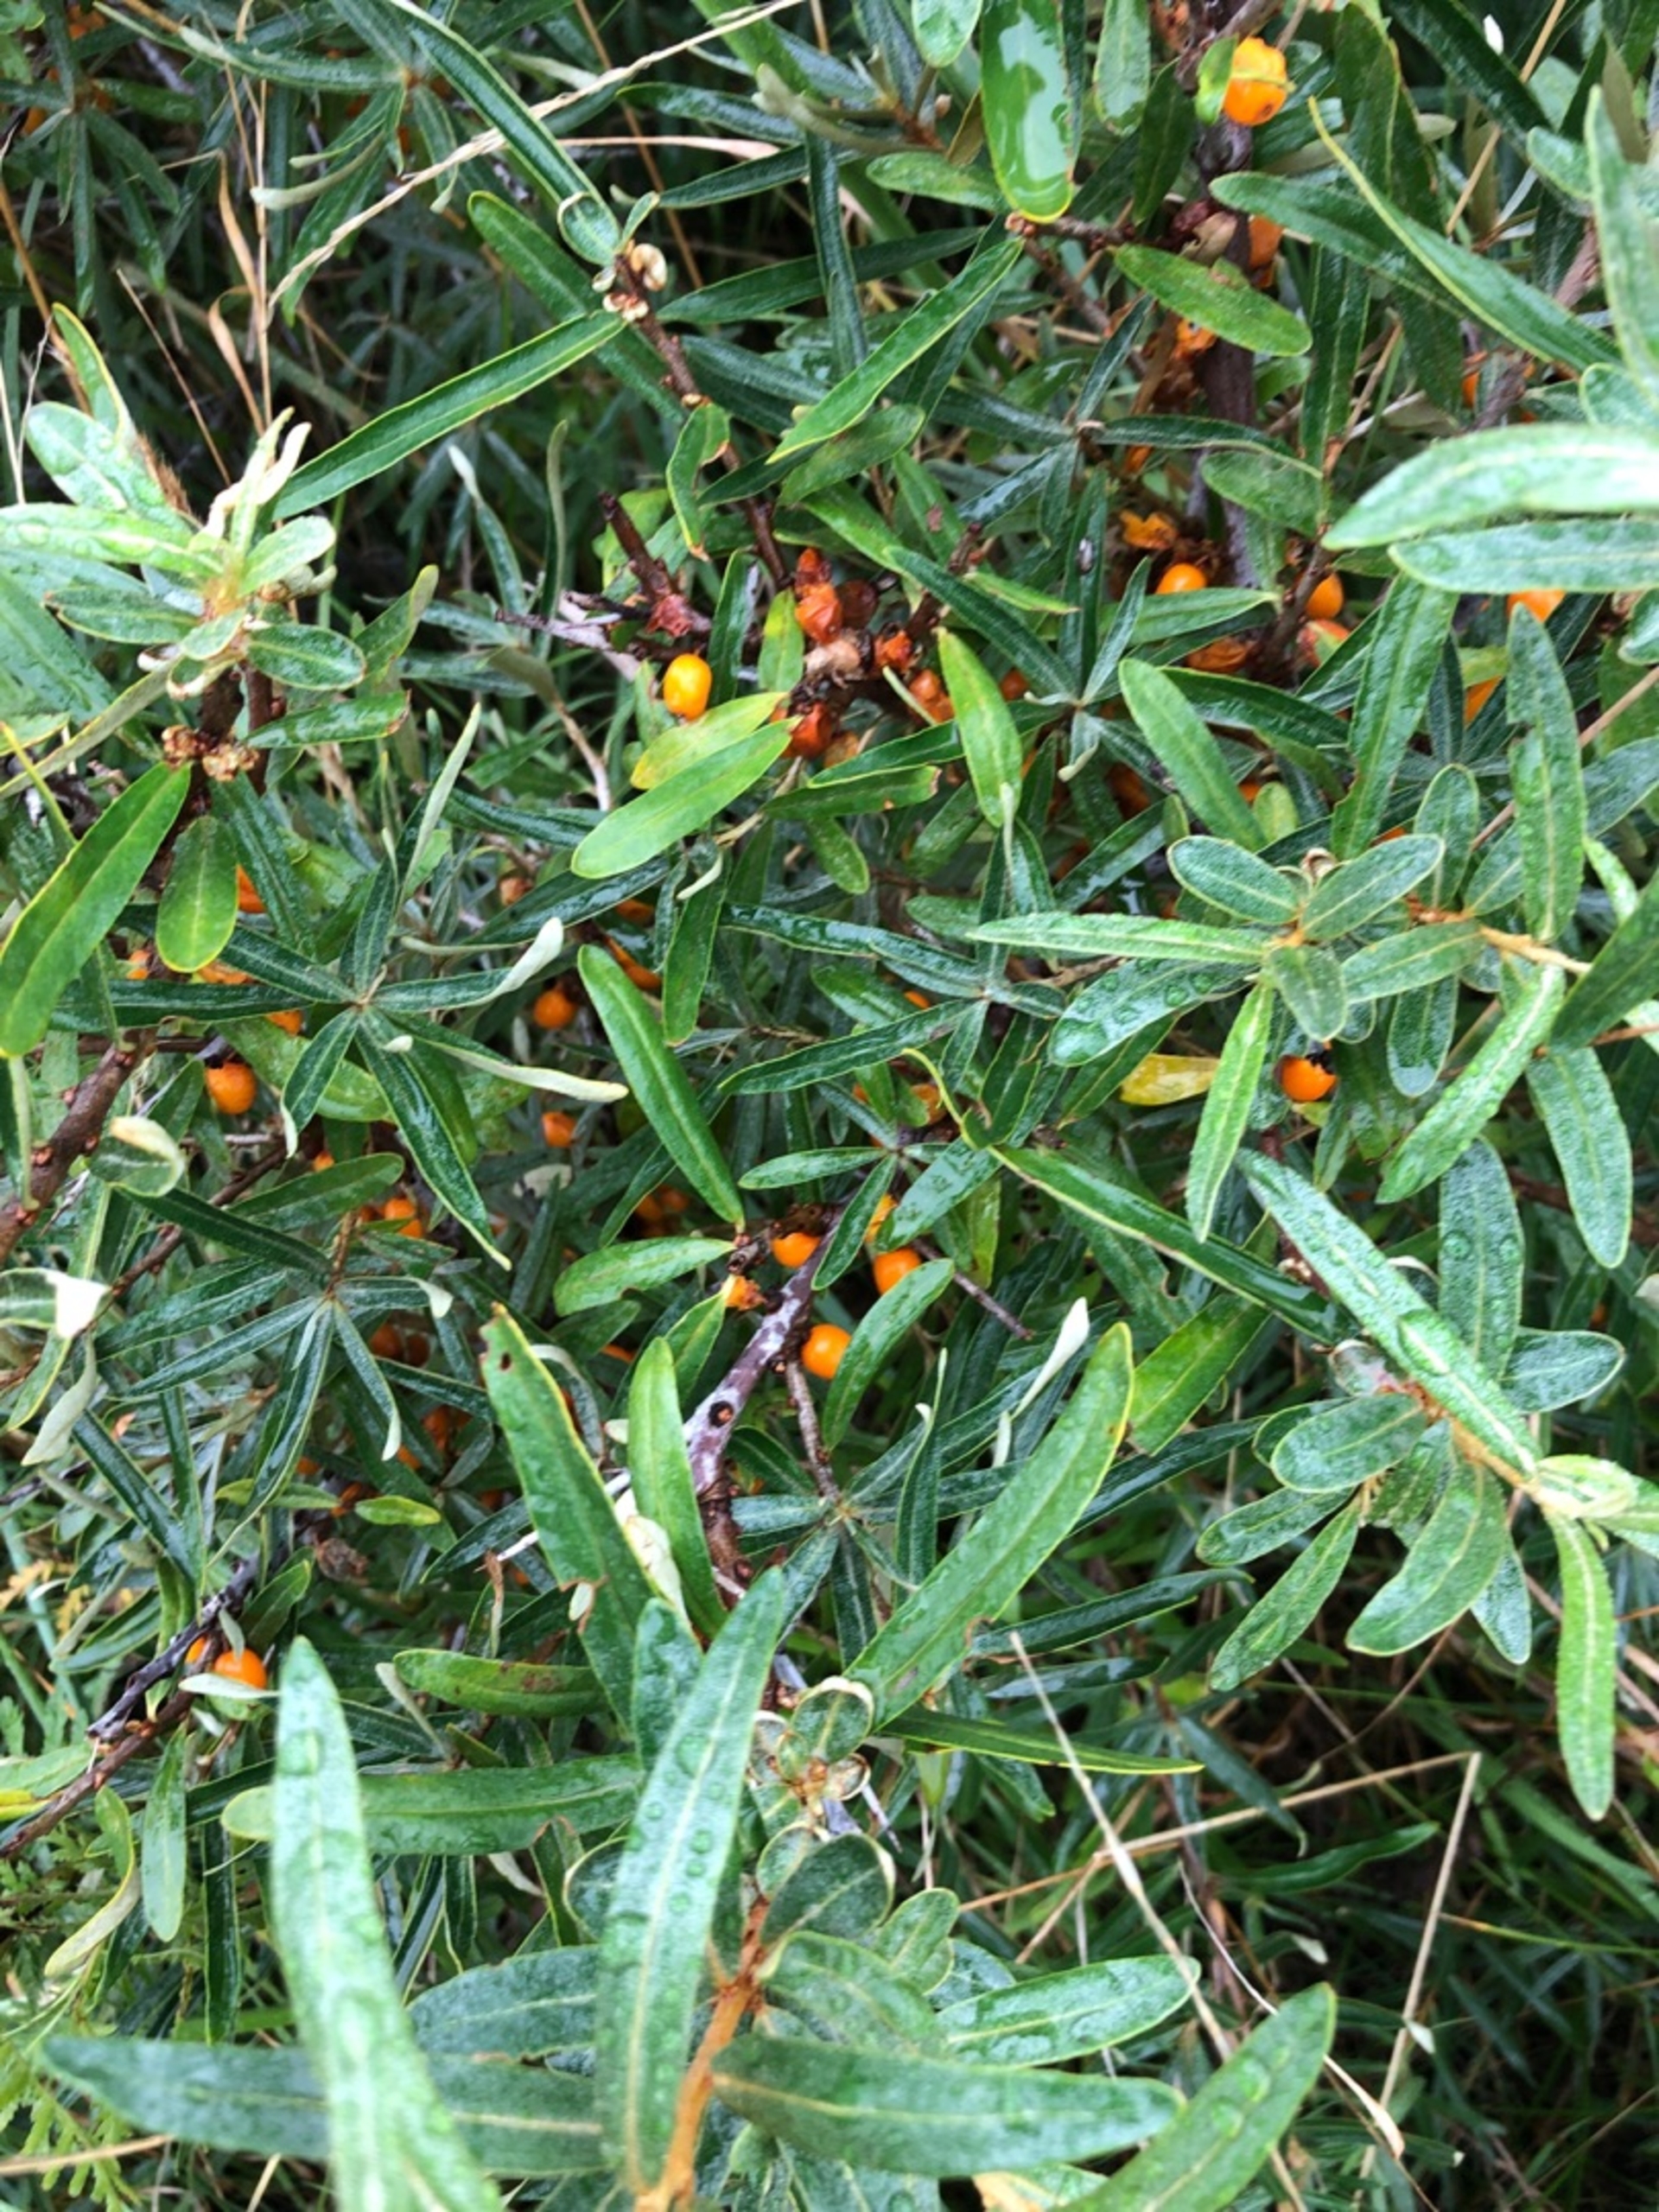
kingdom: Plantae
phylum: Tracheophyta
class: Magnoliopsida
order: Rosales
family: Elaeagnaceae
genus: Hippophae
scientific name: Hippophae rhamnoides
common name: Havtorn
